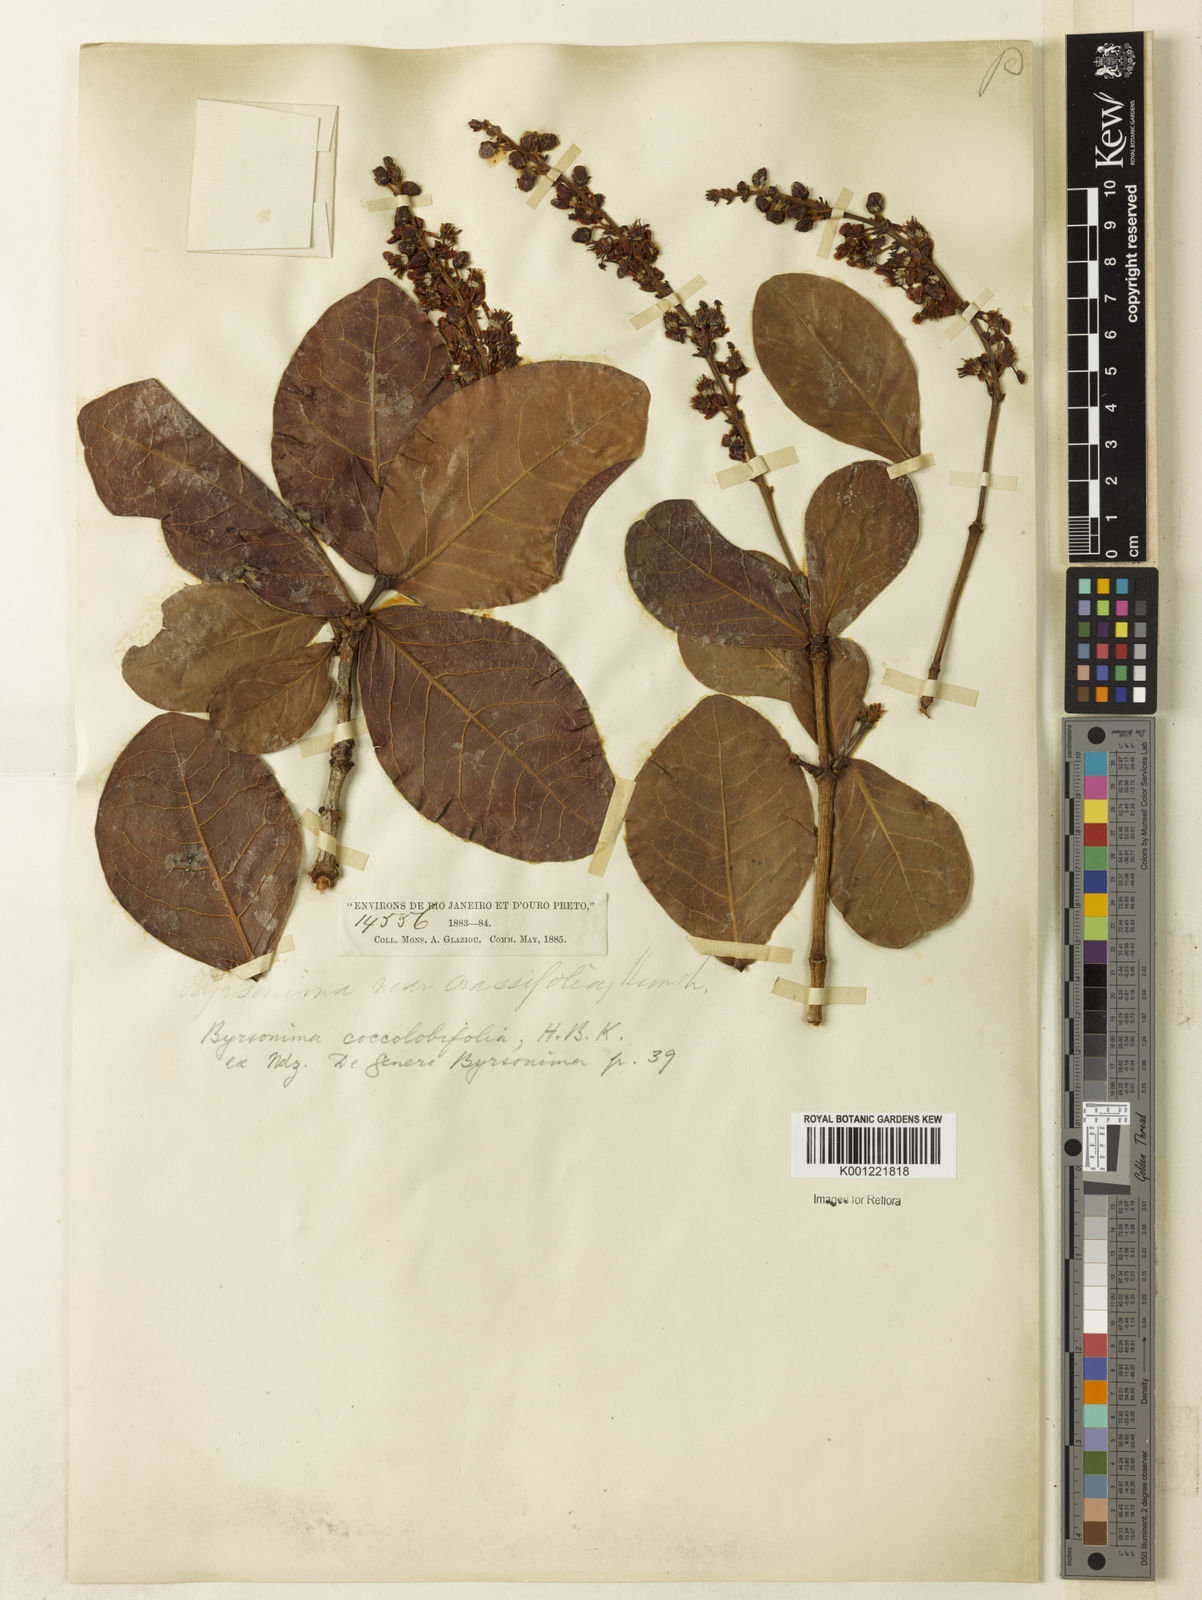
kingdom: Plantae
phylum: Tracheophyta
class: Magnoliopsida
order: Malpighiales
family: Malpighiaceae
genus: Byrsonima
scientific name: Byrsonima coccolobifolia
